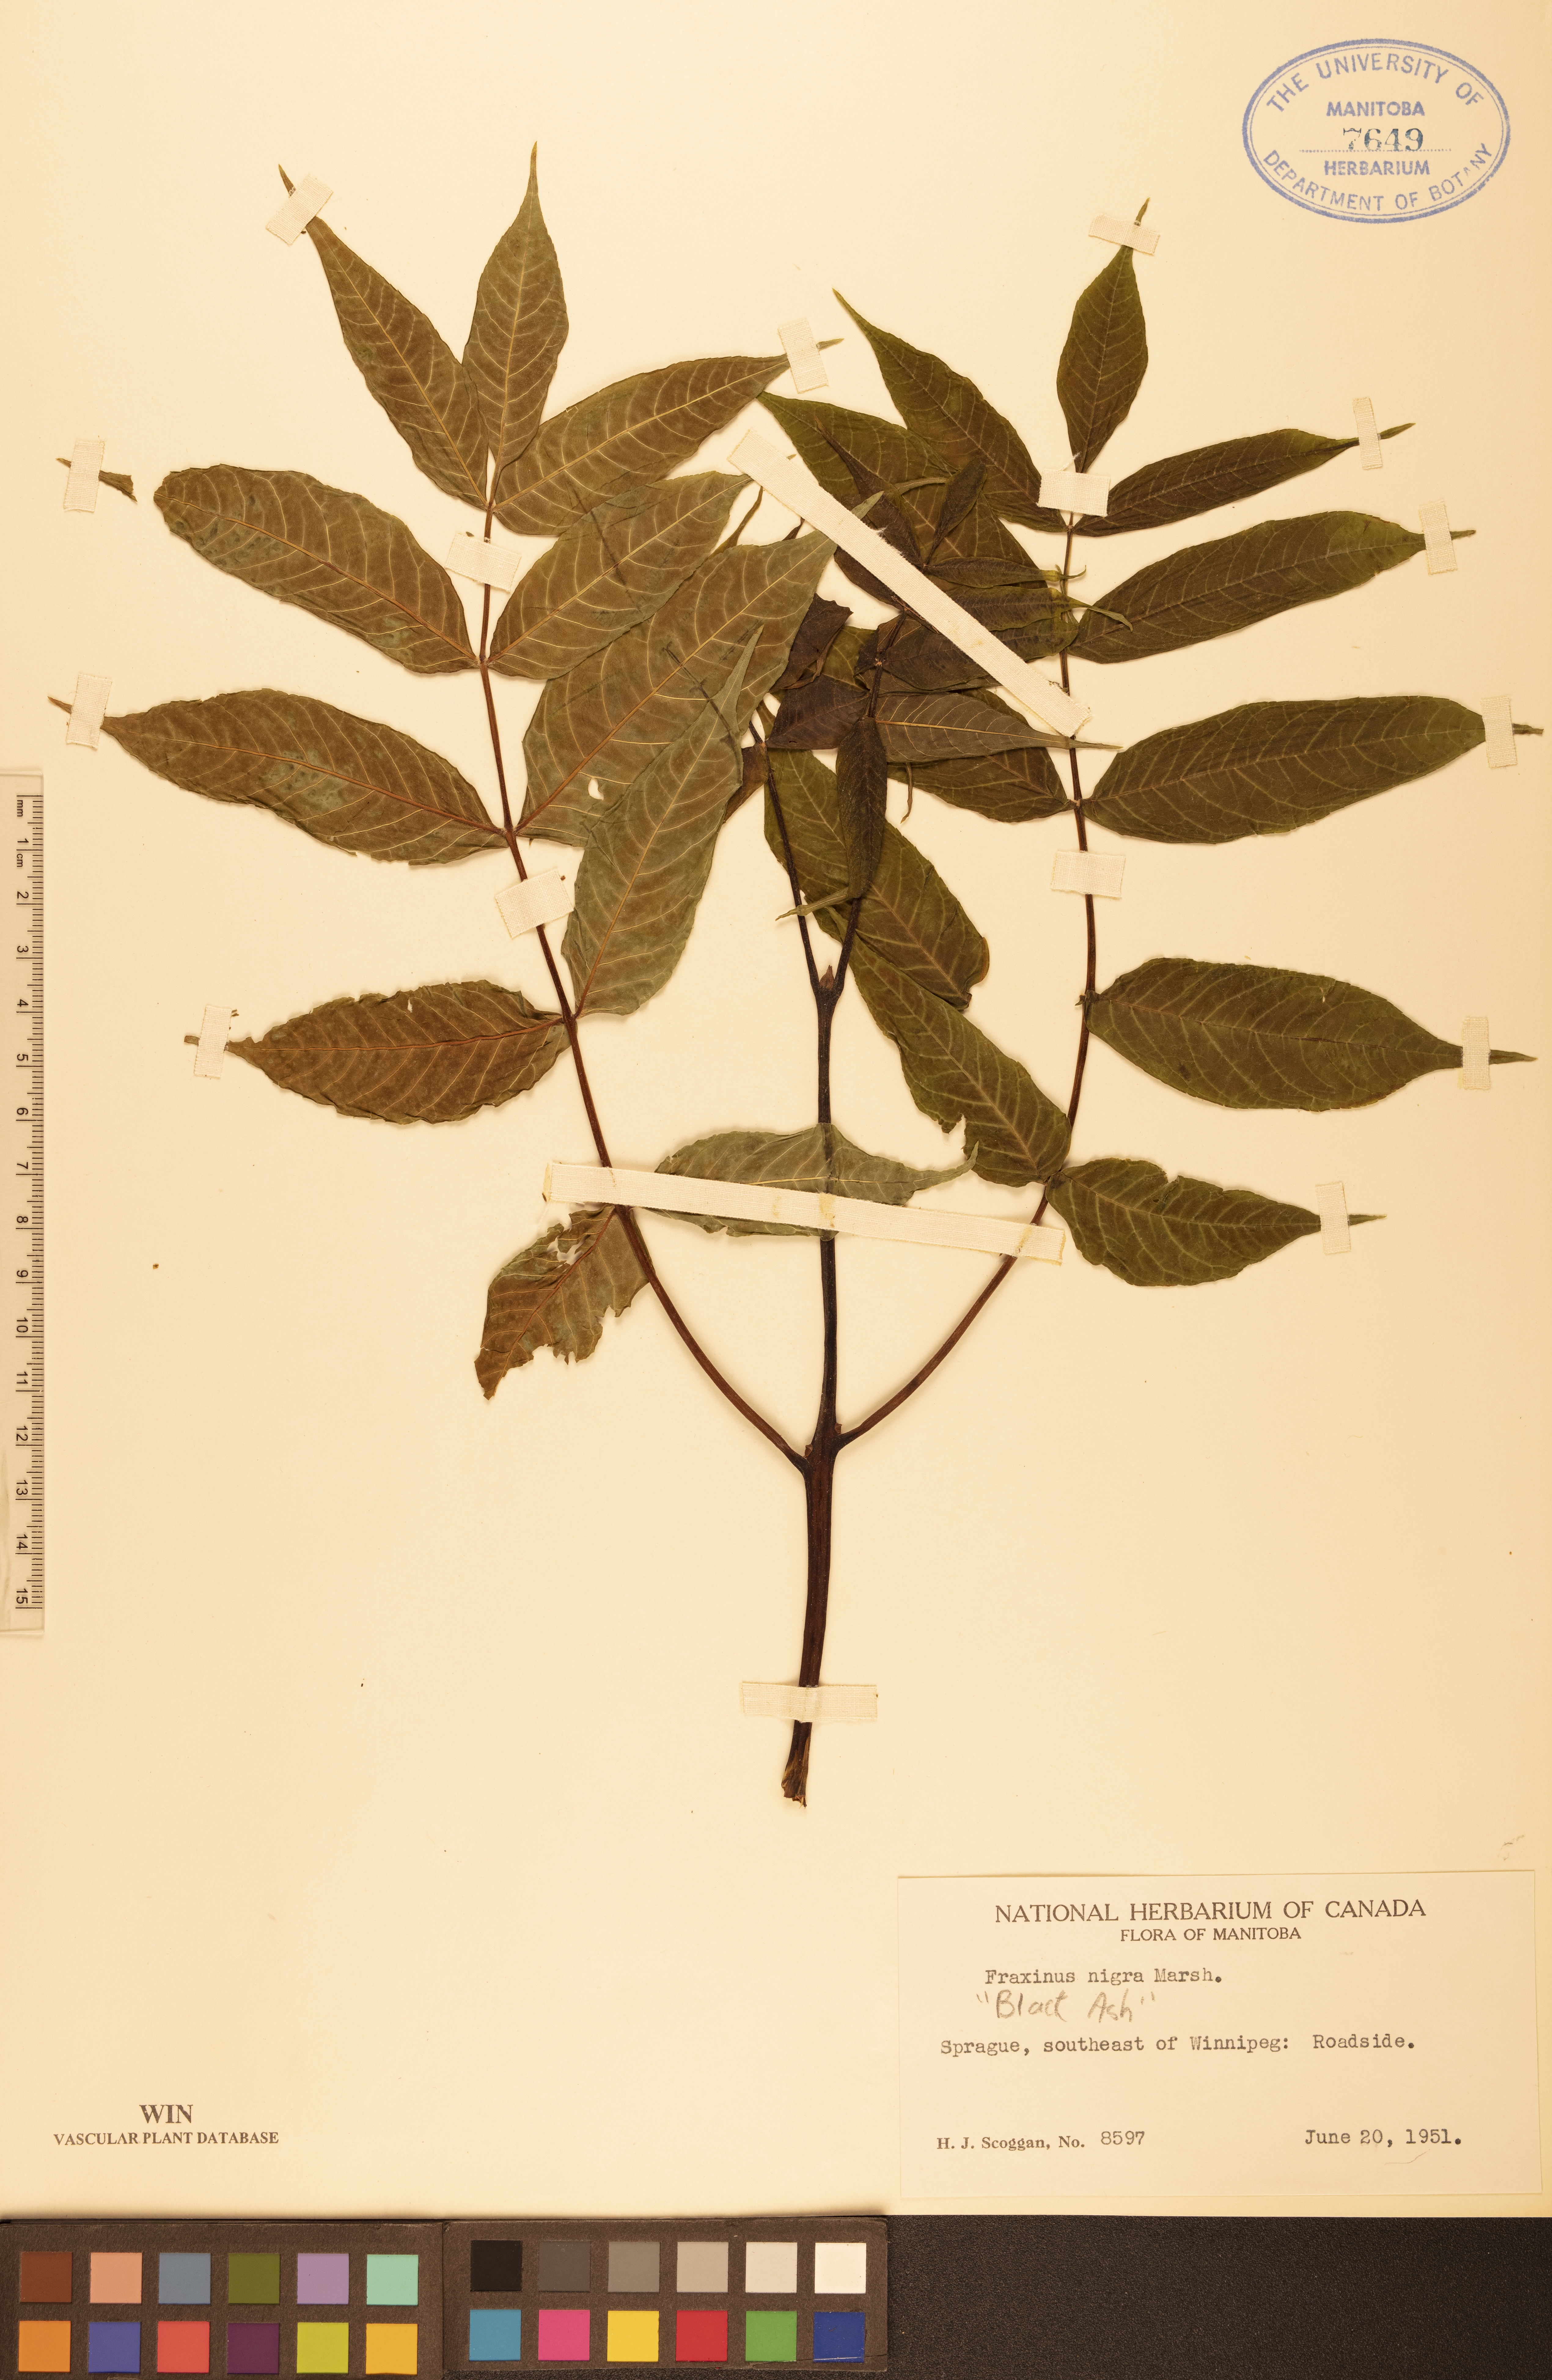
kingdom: Plantae
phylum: Tracheophyta
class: Magnoliopsida
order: Lamiales
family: Oleaceae
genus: Fraxinus
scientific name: Fraxinus nigra
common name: Black ash
